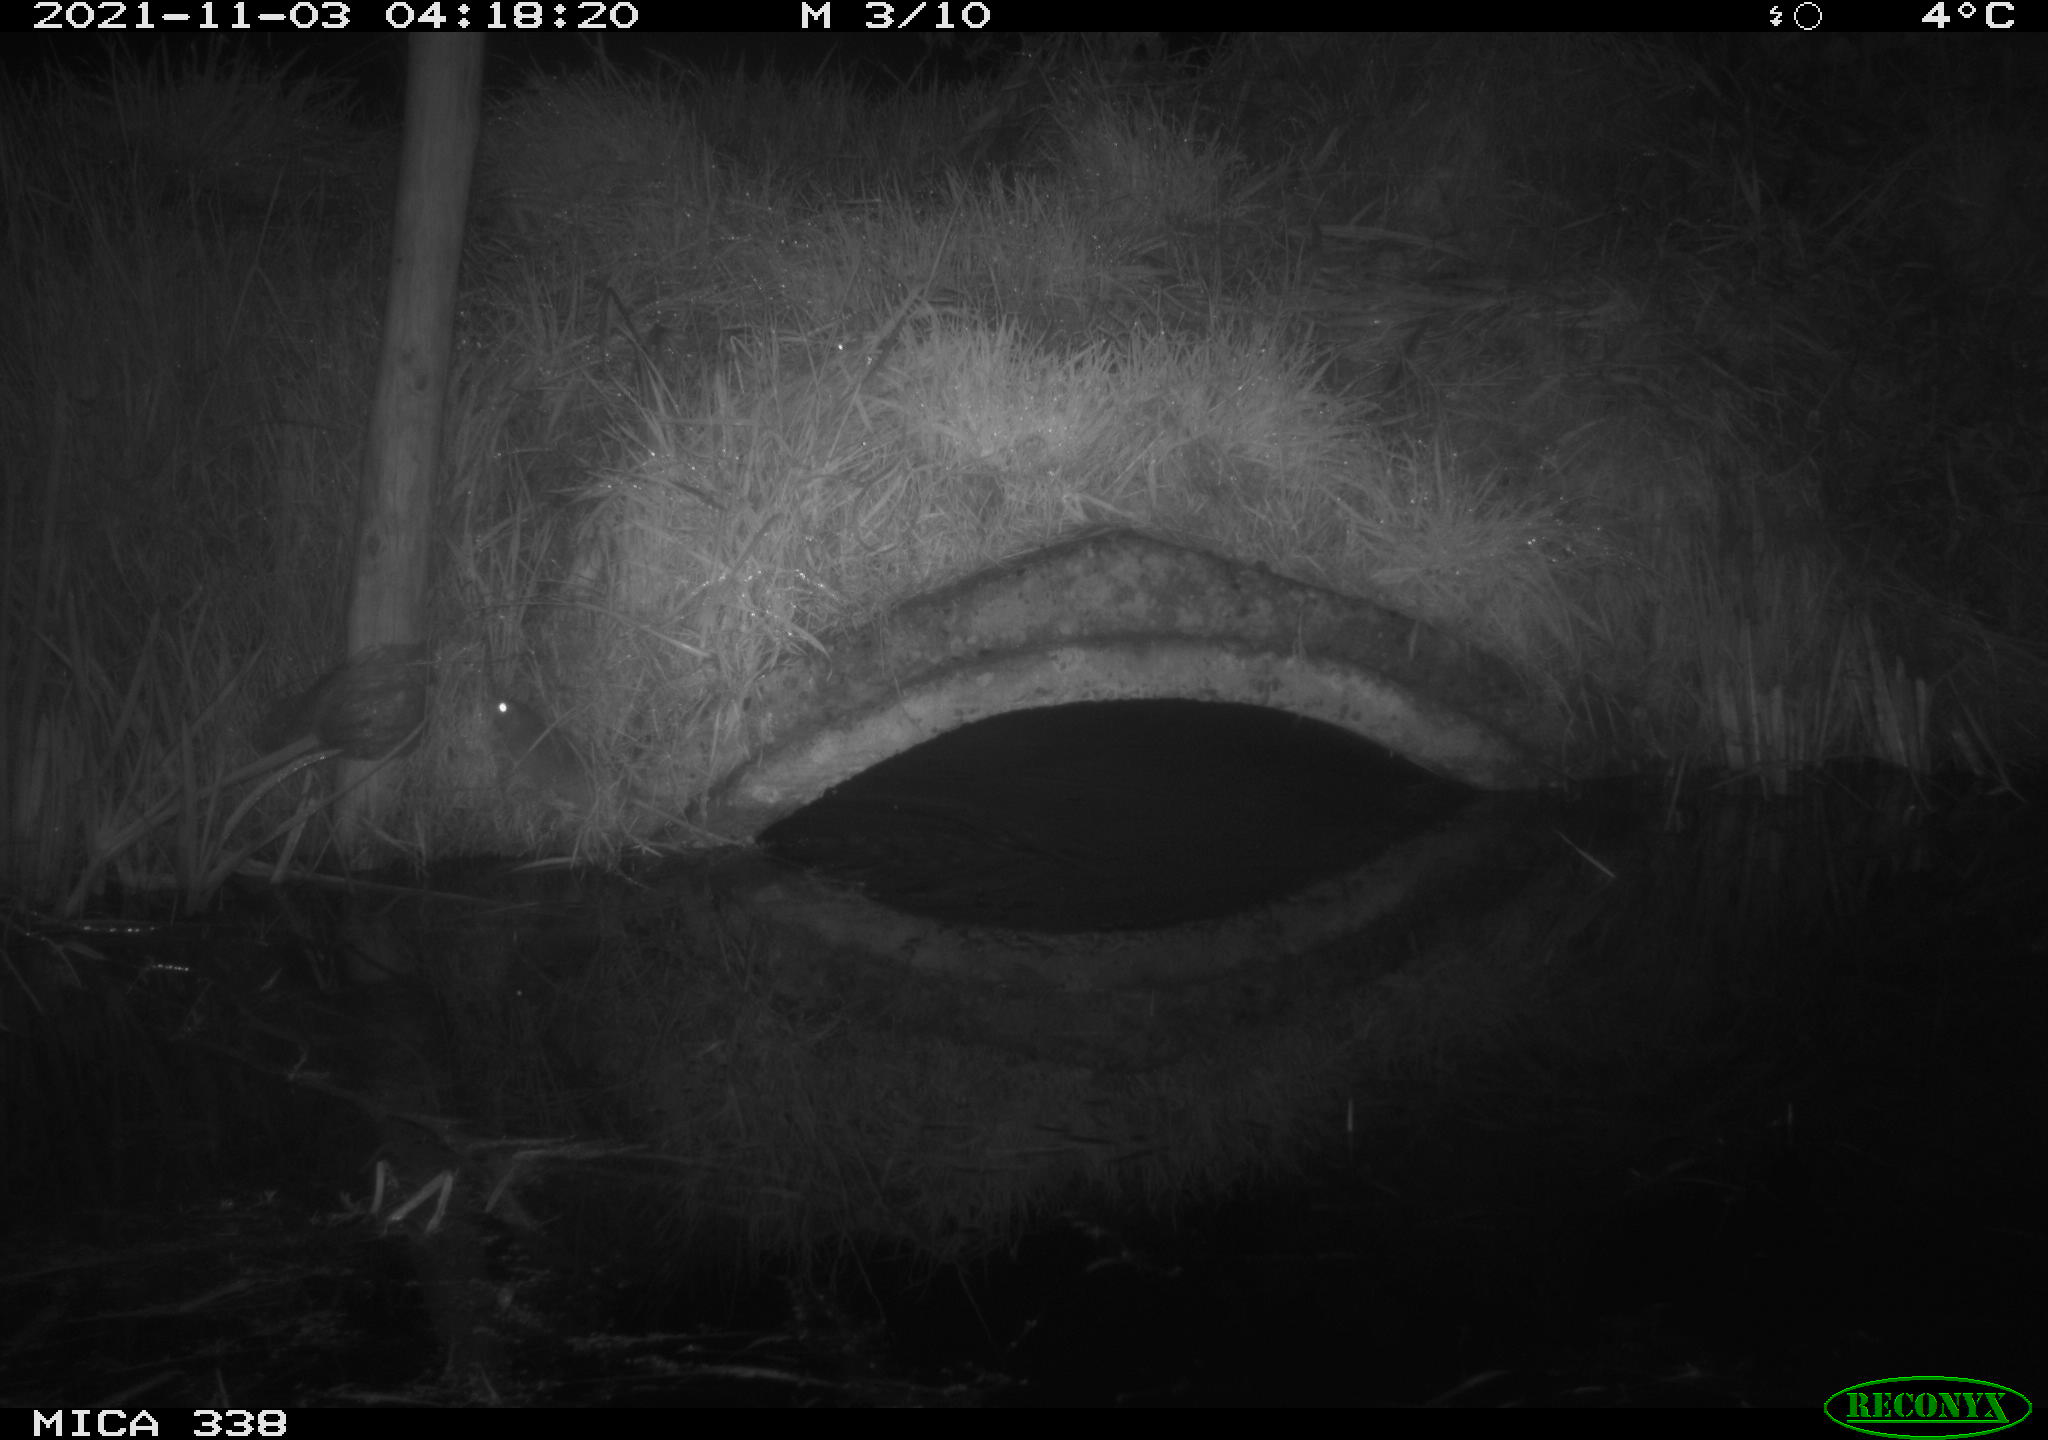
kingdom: Animalia
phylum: Chordata
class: Mammalia
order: Rodentia
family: Muridae
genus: Rattus
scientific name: Rattus norvegicus
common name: Brown rat
